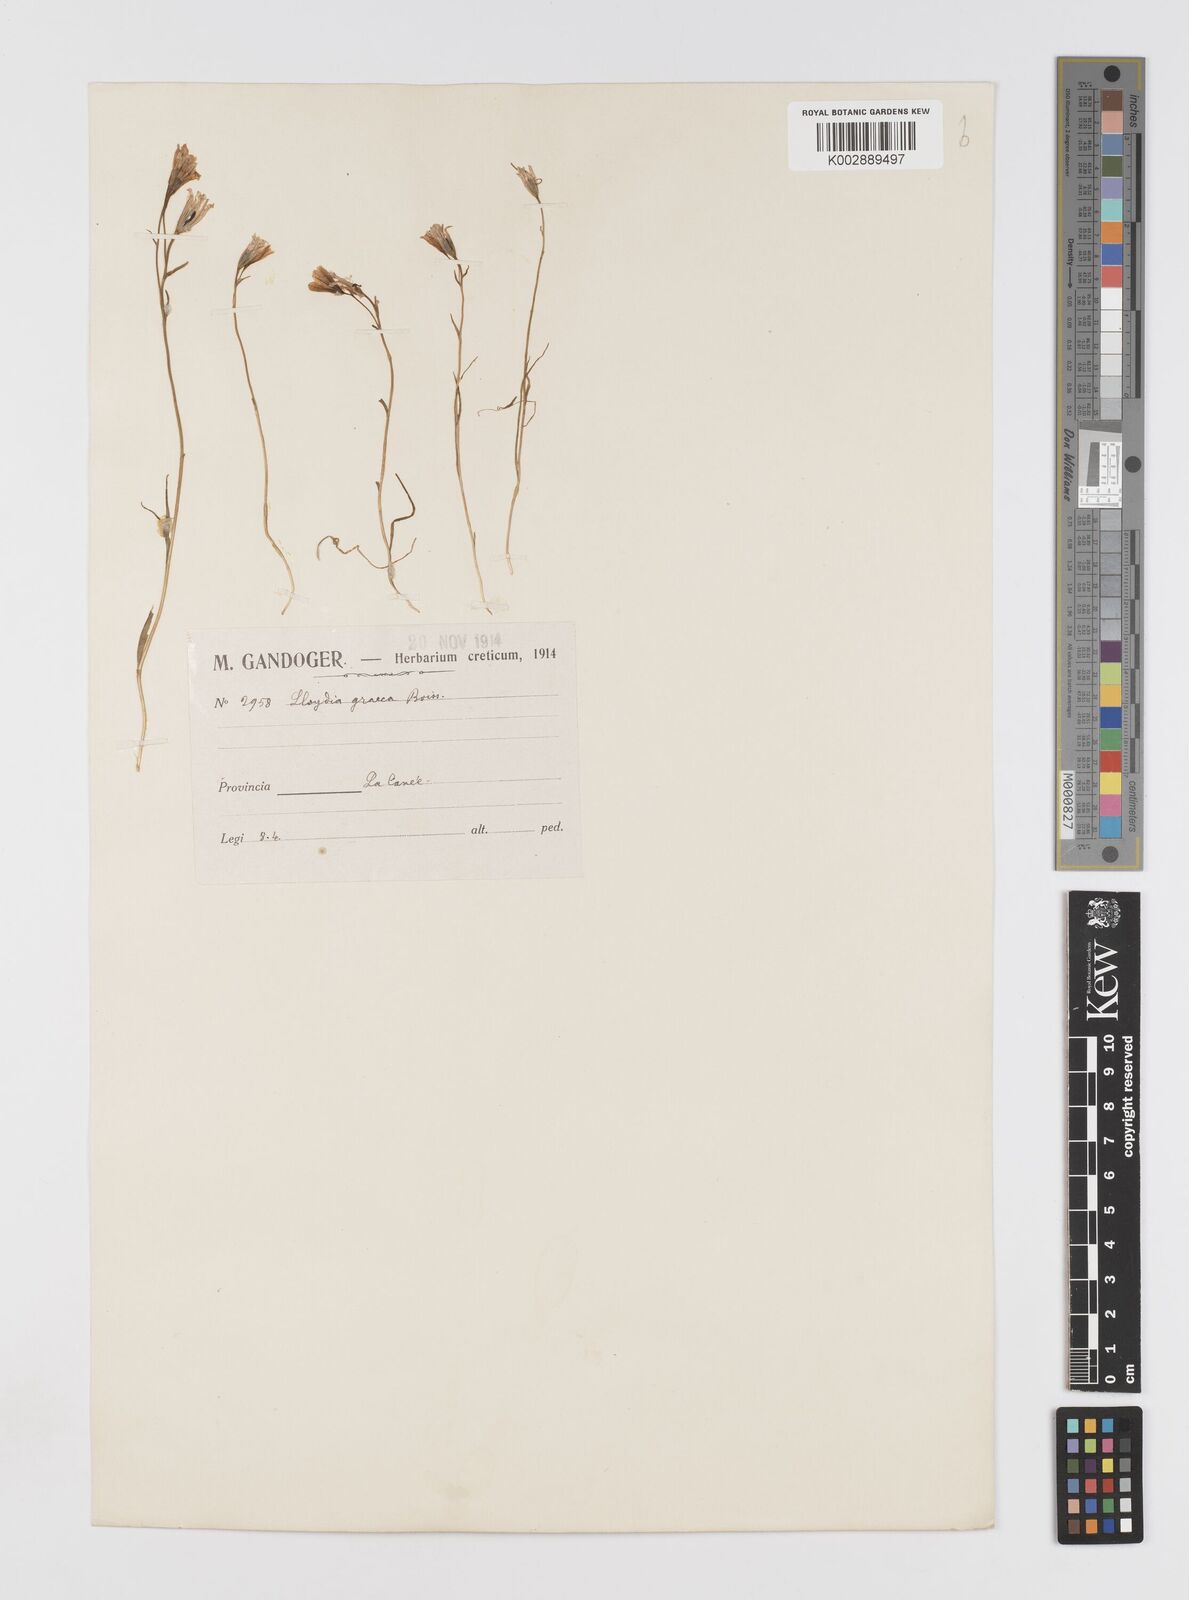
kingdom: Plantae
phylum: Tracheophyta
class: Liliopsida
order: Liliales
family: Liliaceae
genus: Gagea
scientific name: Gagea graeca
